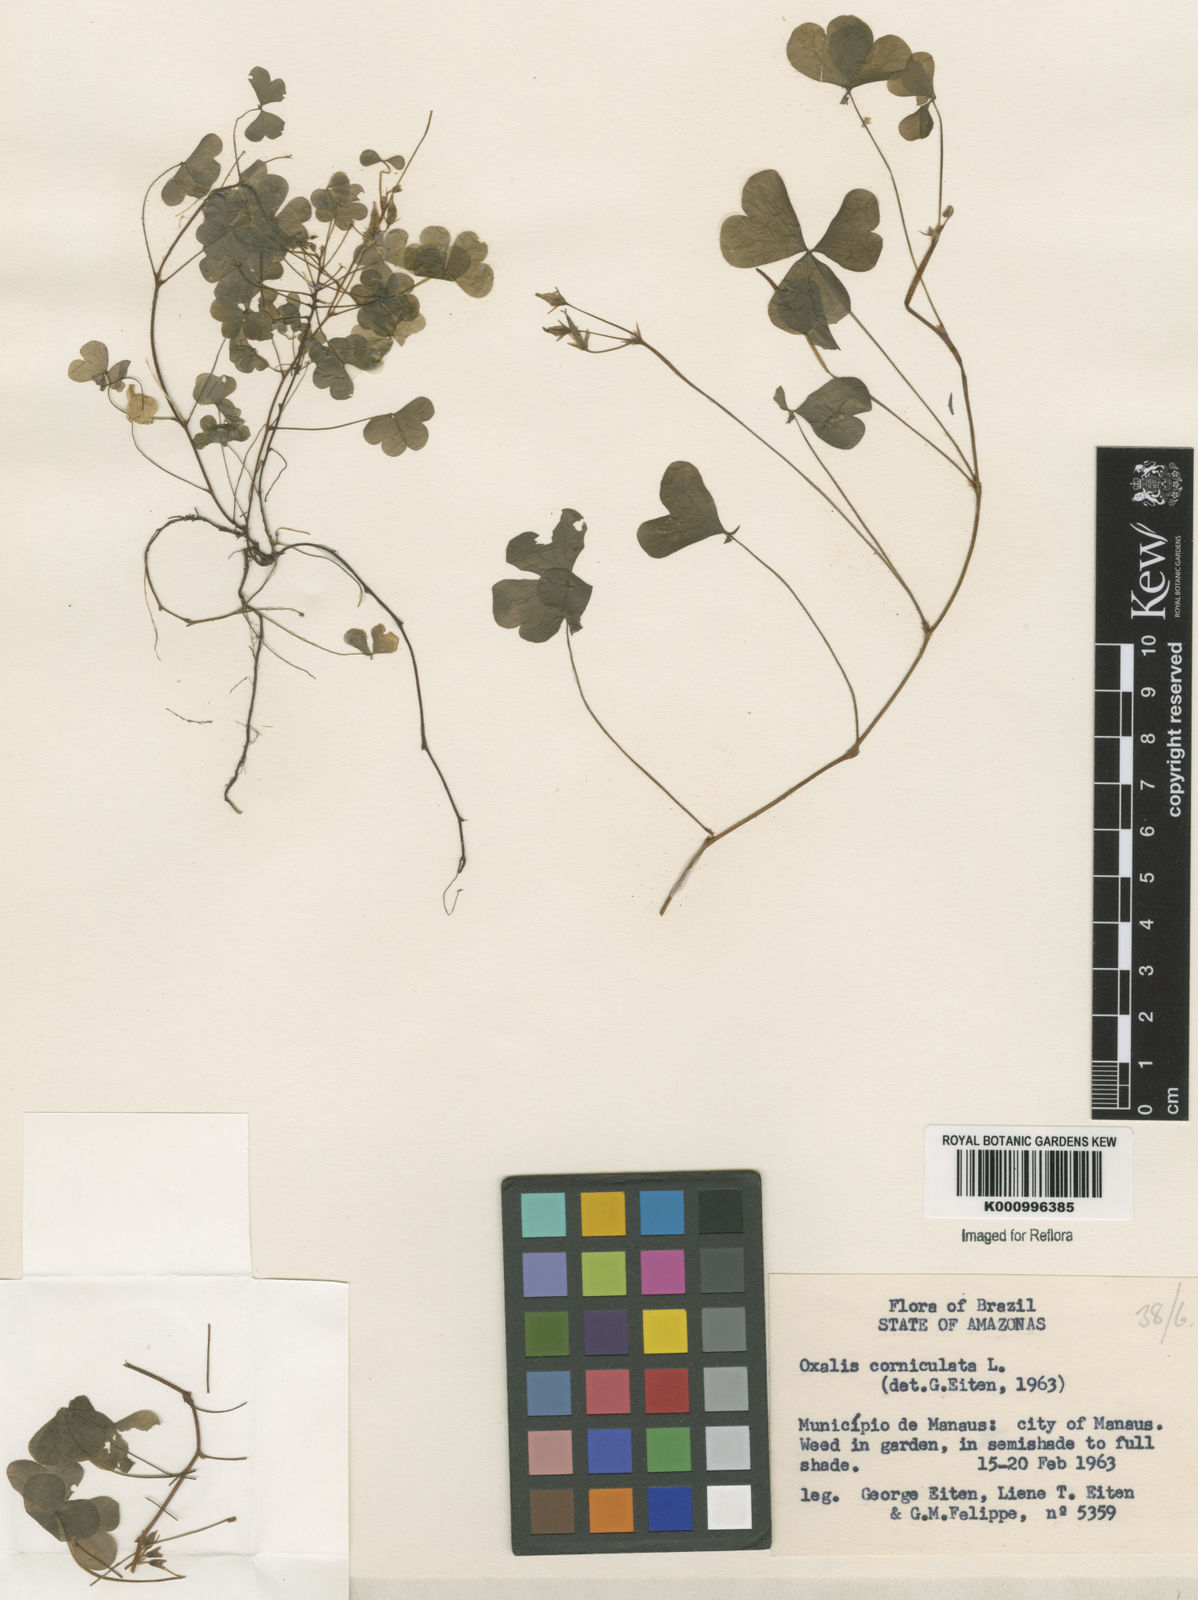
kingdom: Plantae
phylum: Tracheophyta
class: Magnoliopsida
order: Oxalidales
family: Oxalidaceae
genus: Oxalis
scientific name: Oxalis corniculata
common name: Procumbent yellow-sorrel
